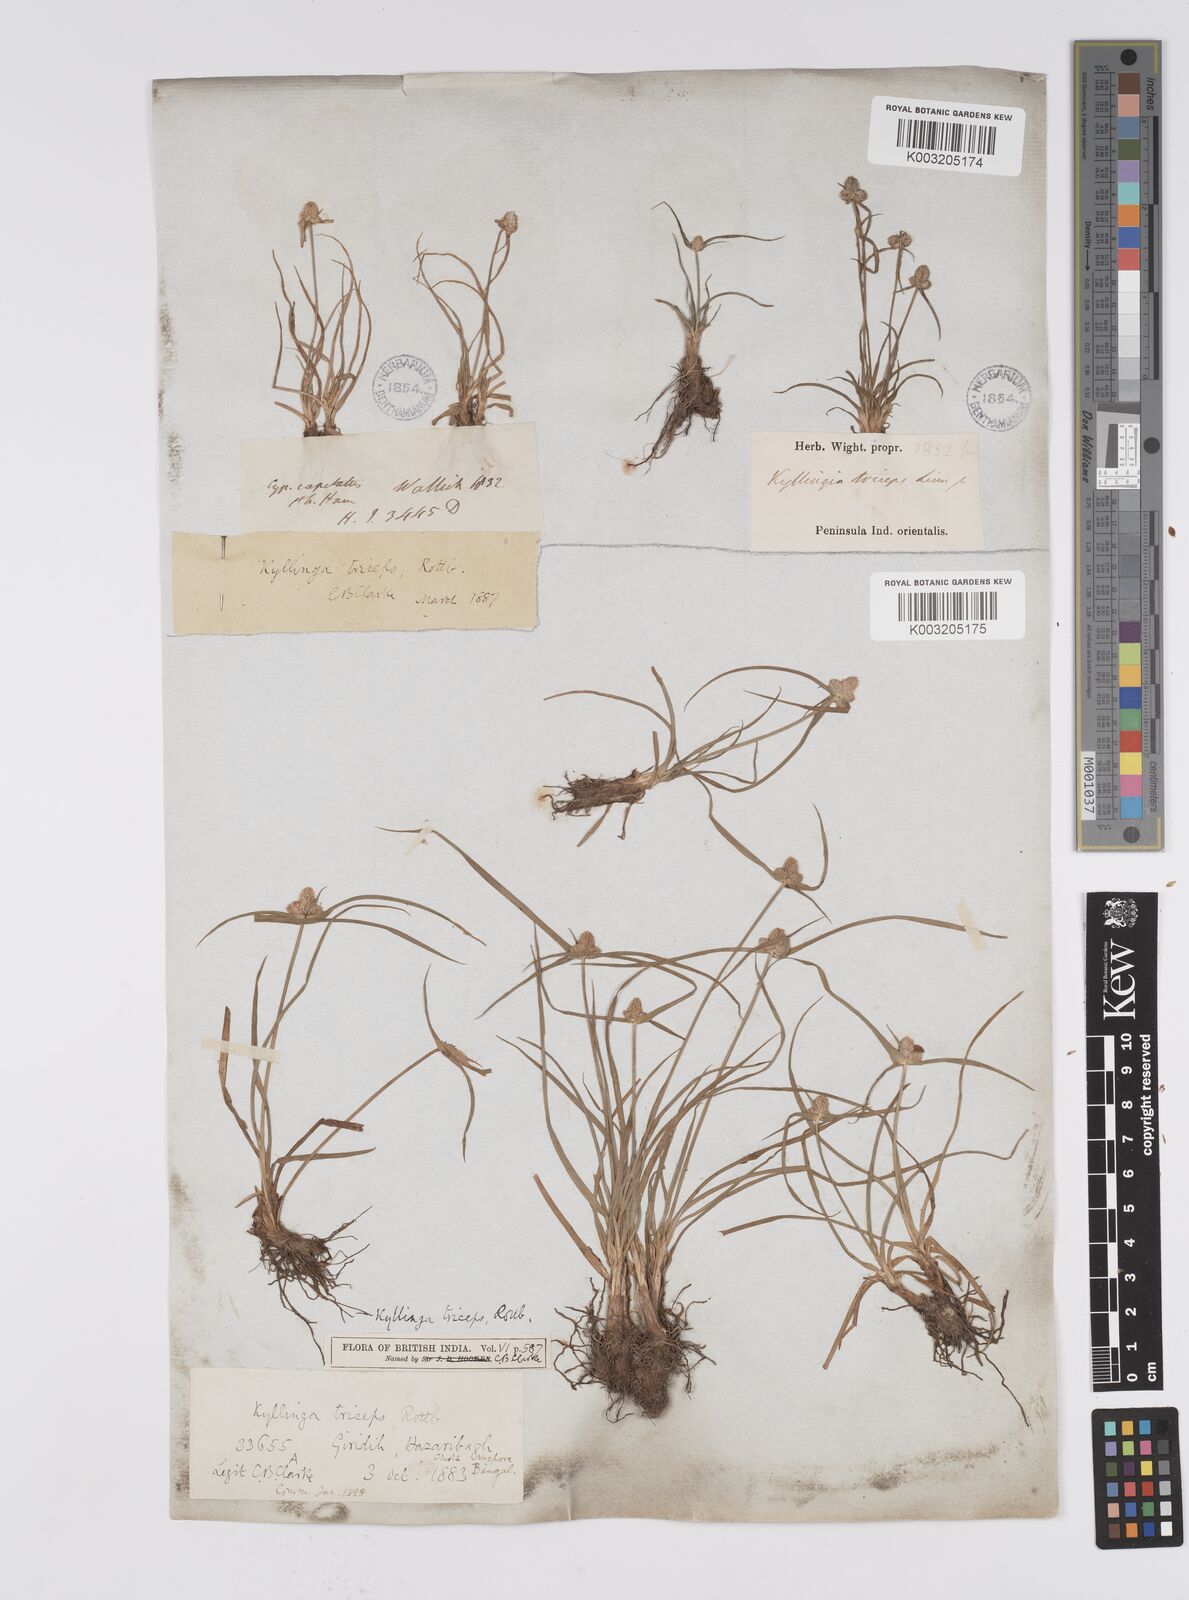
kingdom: Plantae
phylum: Tracheophyta
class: Liliopsida
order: Poales
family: Cyperaceae
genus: Cyperus
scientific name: Cyperus
